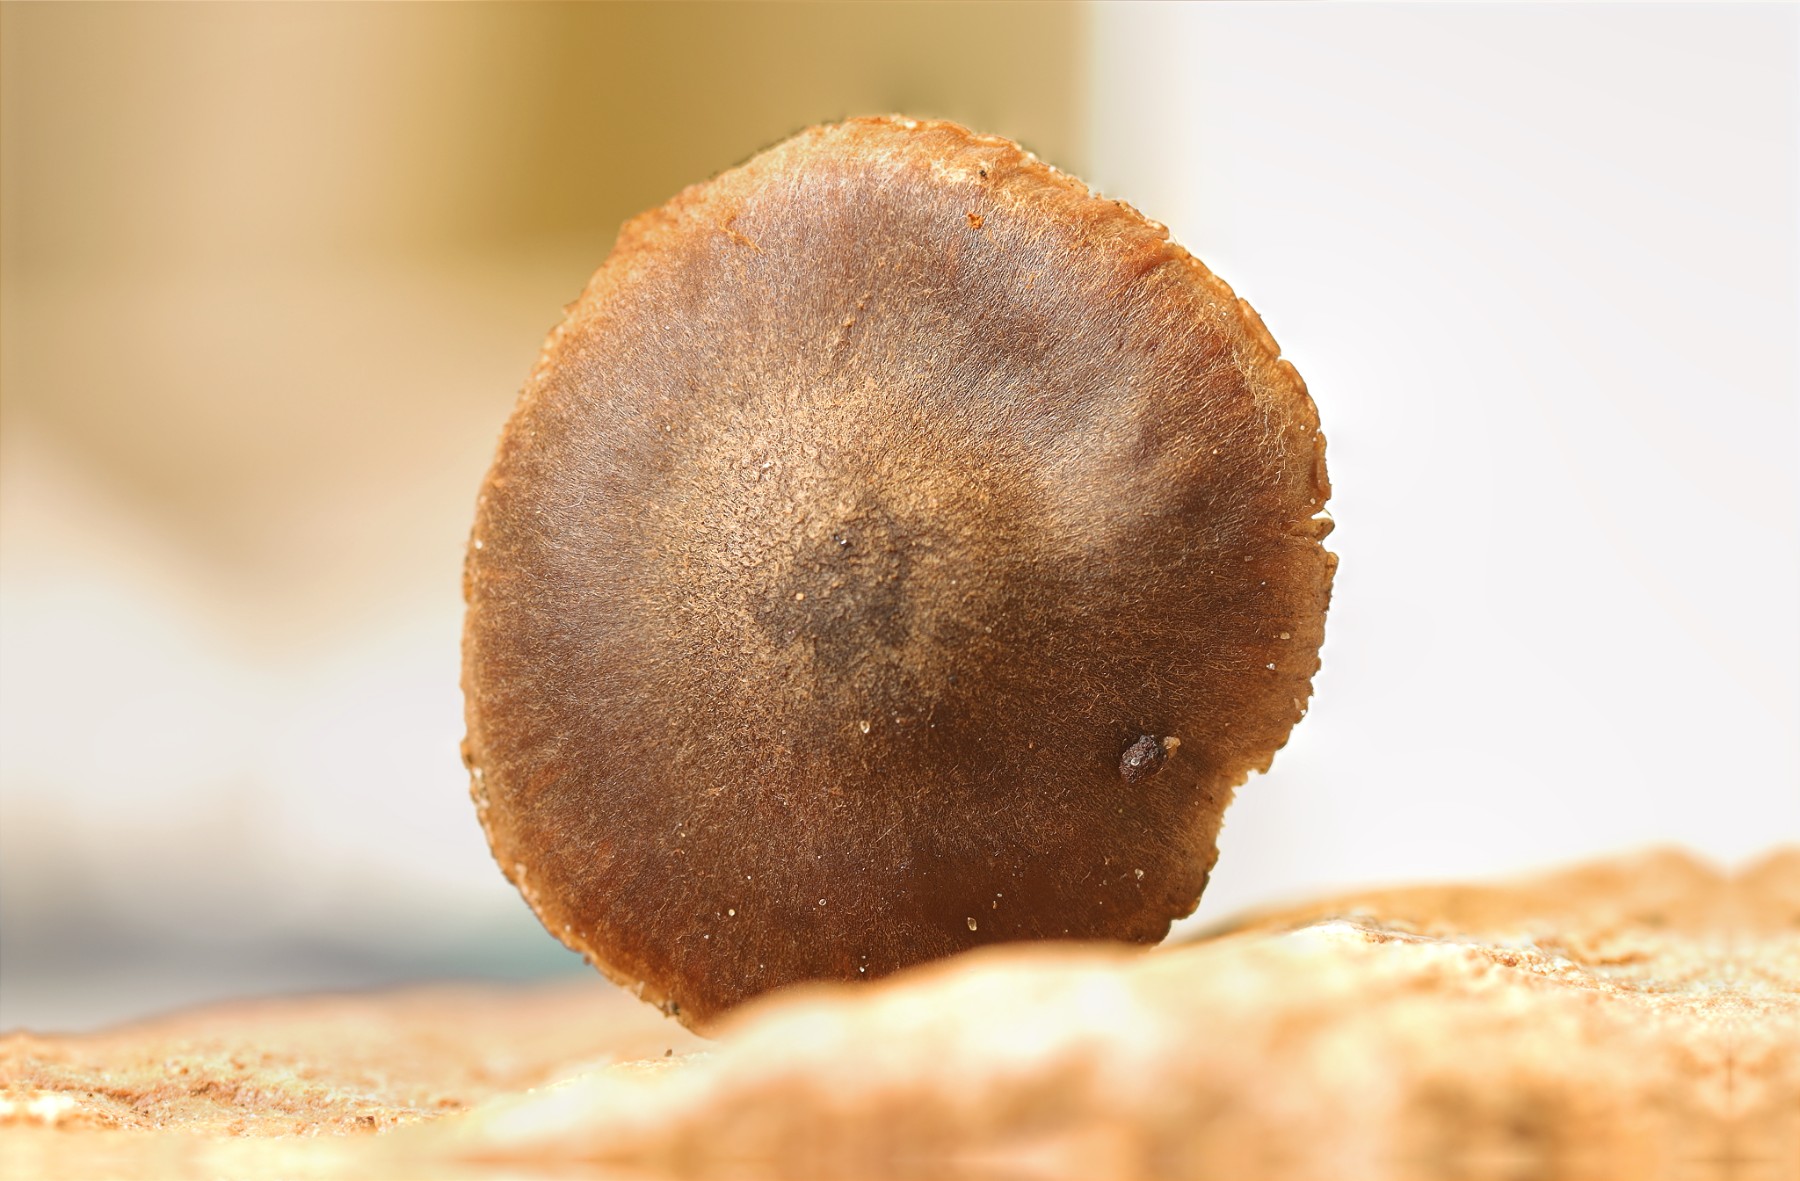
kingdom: Fungi
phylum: Basidiomycota
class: Agaricomycetes
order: Agaricales
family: Cortinariaceae
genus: Cortinarius
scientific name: Cortinarius rubrocinctus
